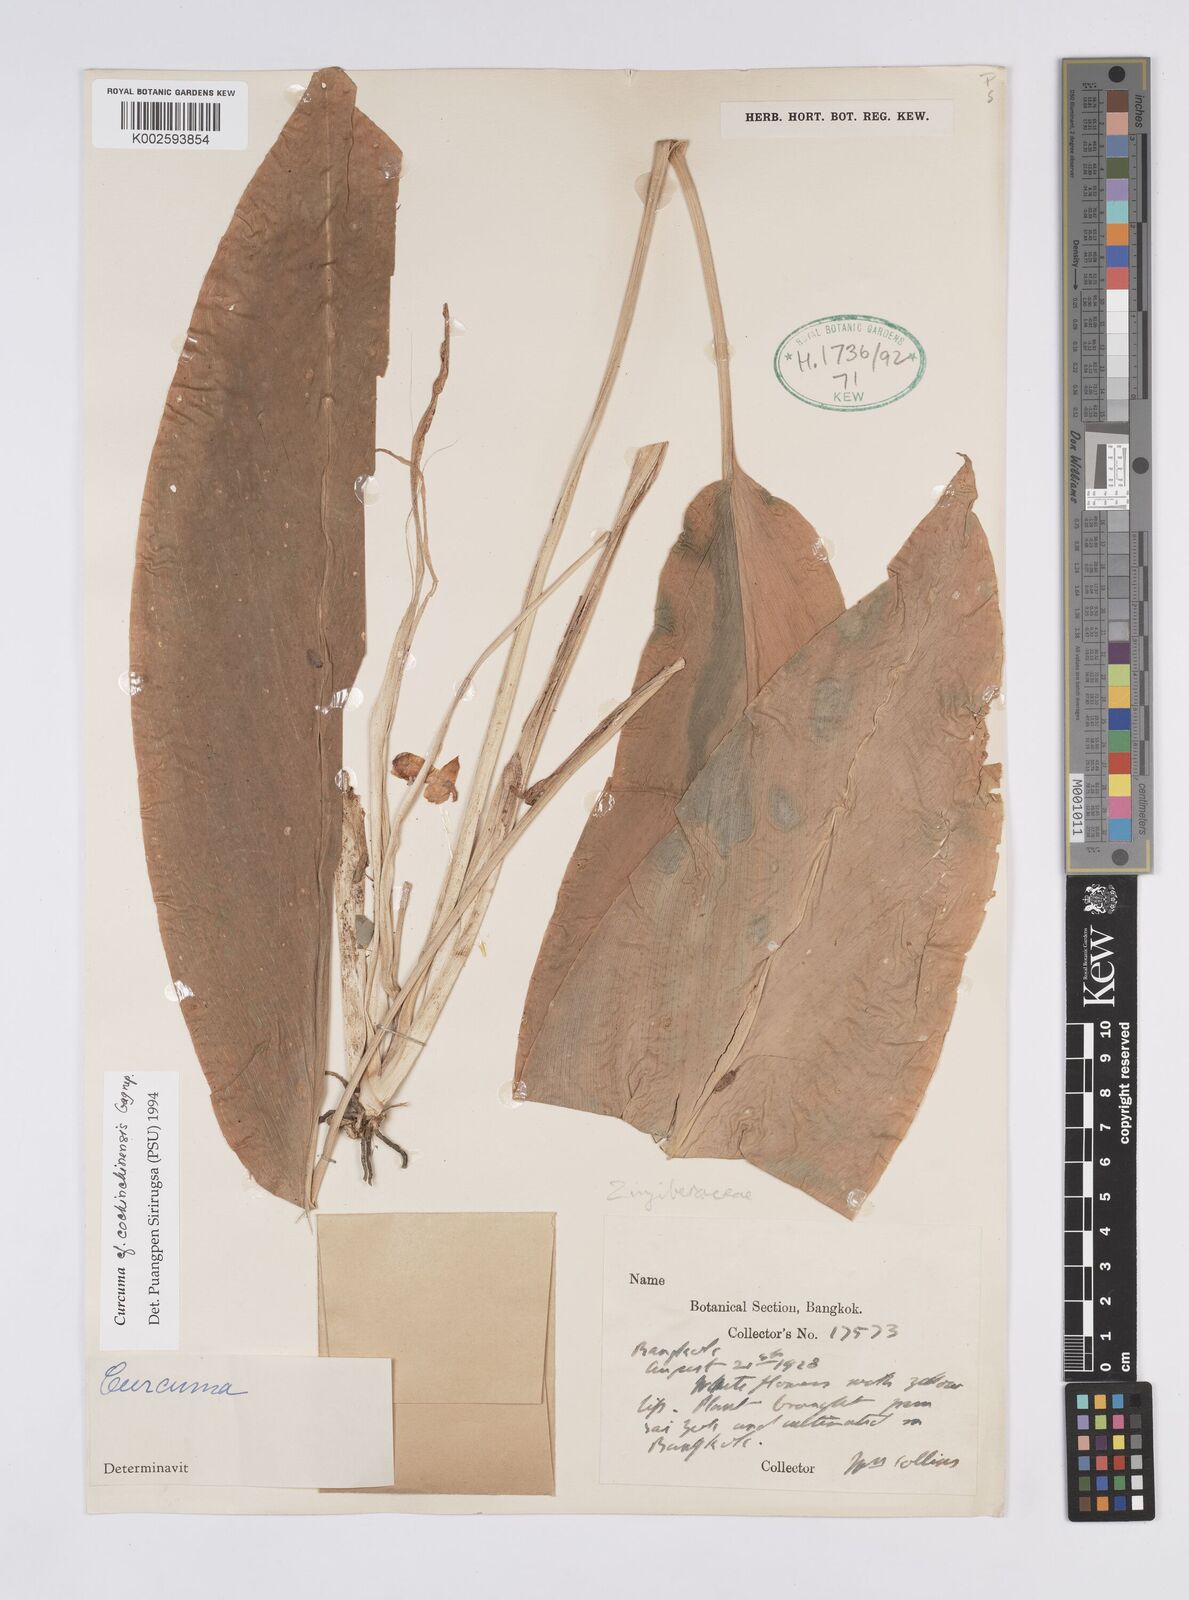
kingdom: Plantae
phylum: Tracheophyta
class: Liliopsida
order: Zingiberales
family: Zingiberaceae
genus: Curcuma
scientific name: Curcuma cochinchinensis
